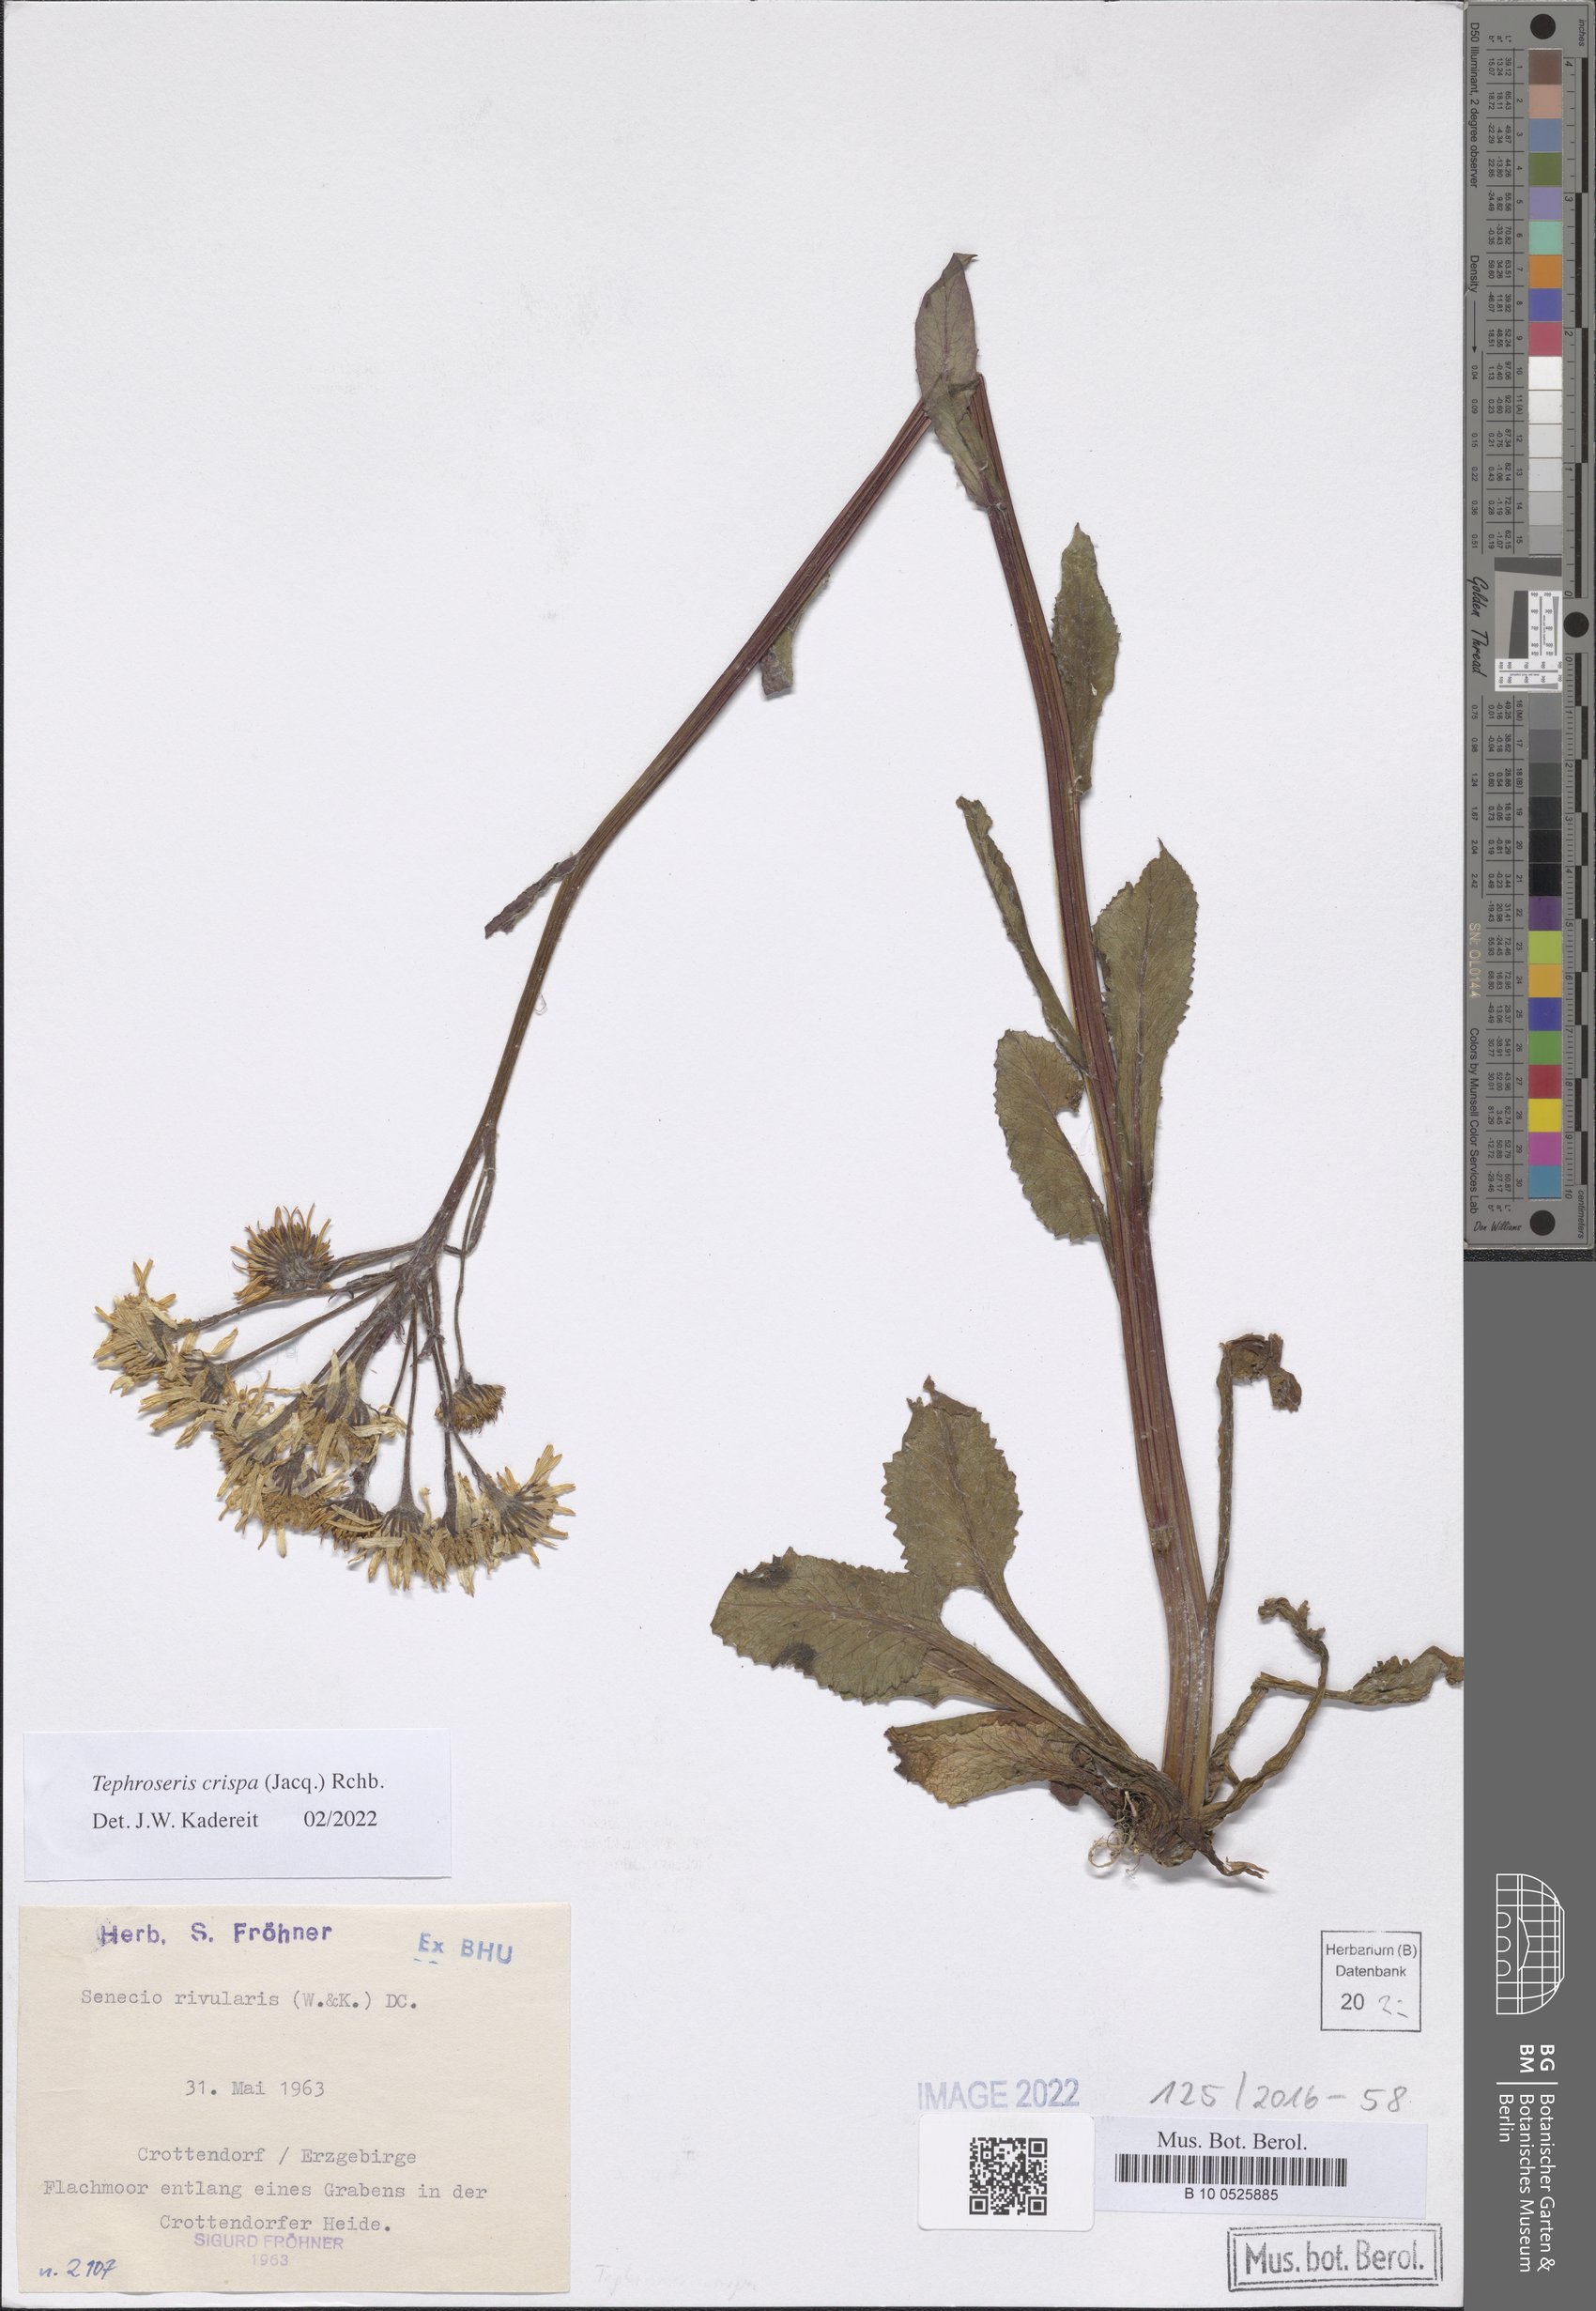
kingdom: Plantae
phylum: Tracheophyta
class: Magnoliopsida
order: Asterales
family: Asteraceae
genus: Tephroseris
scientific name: Tephroseris crispa
